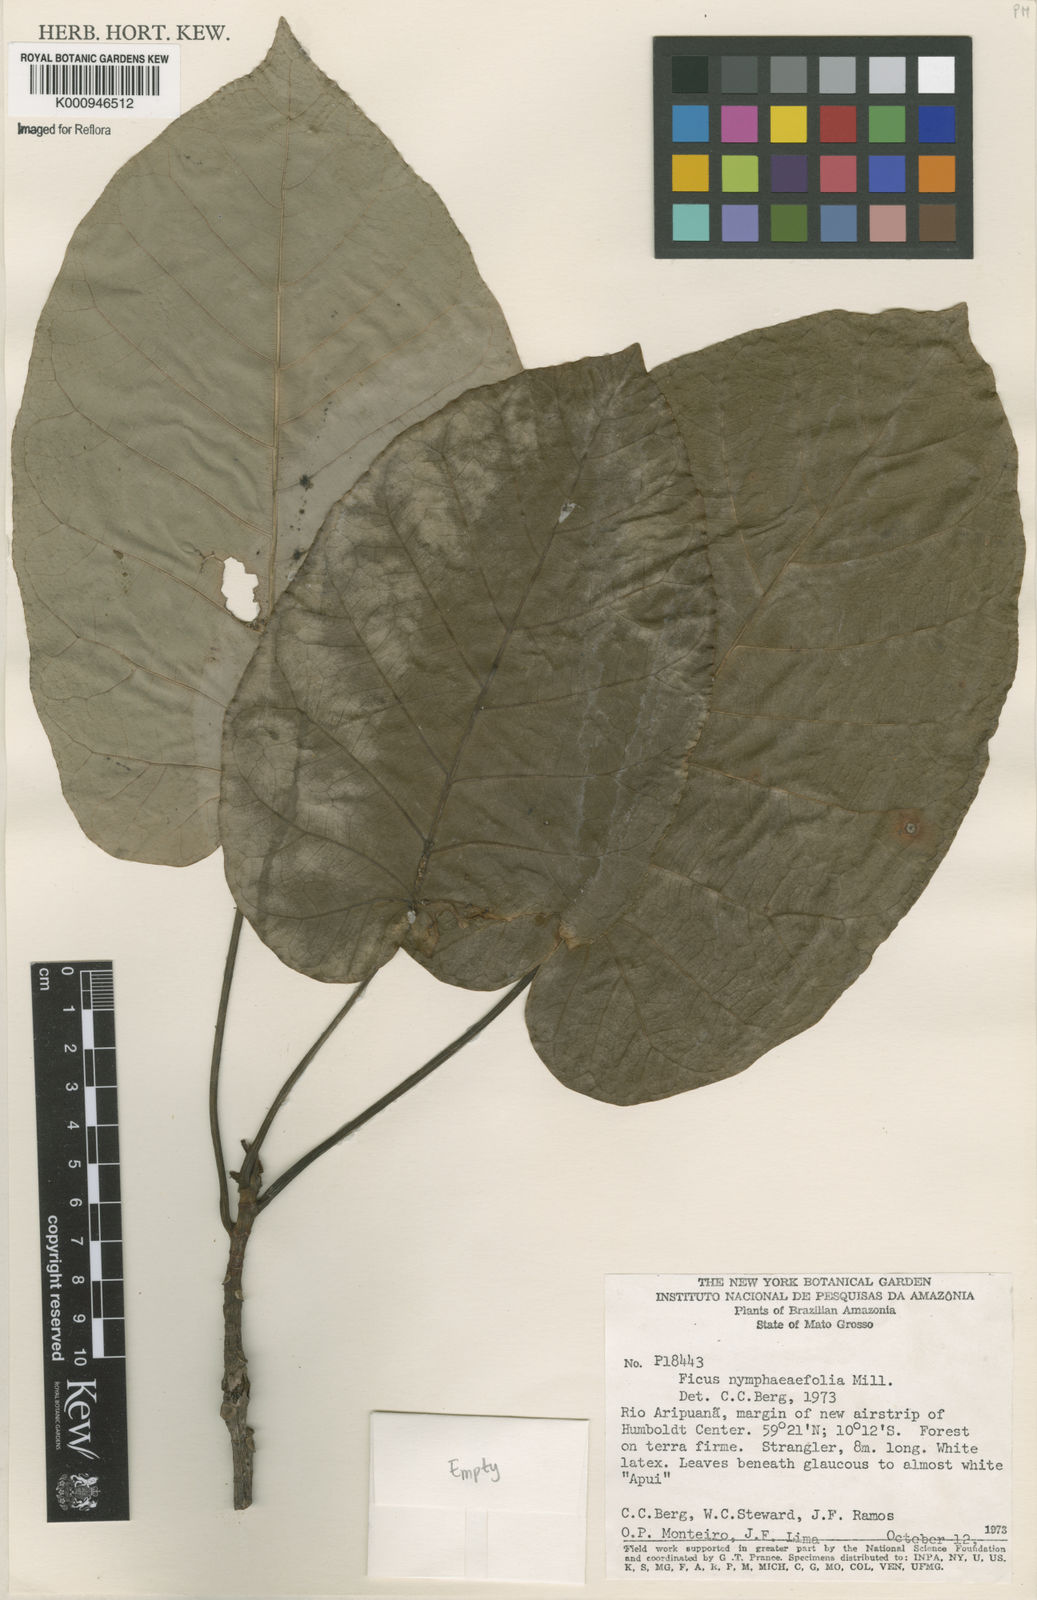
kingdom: Plantae
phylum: Tracheophyta
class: Magnoliopsida
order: Rosales
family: Moraceae
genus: Ficus
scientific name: Ficus
